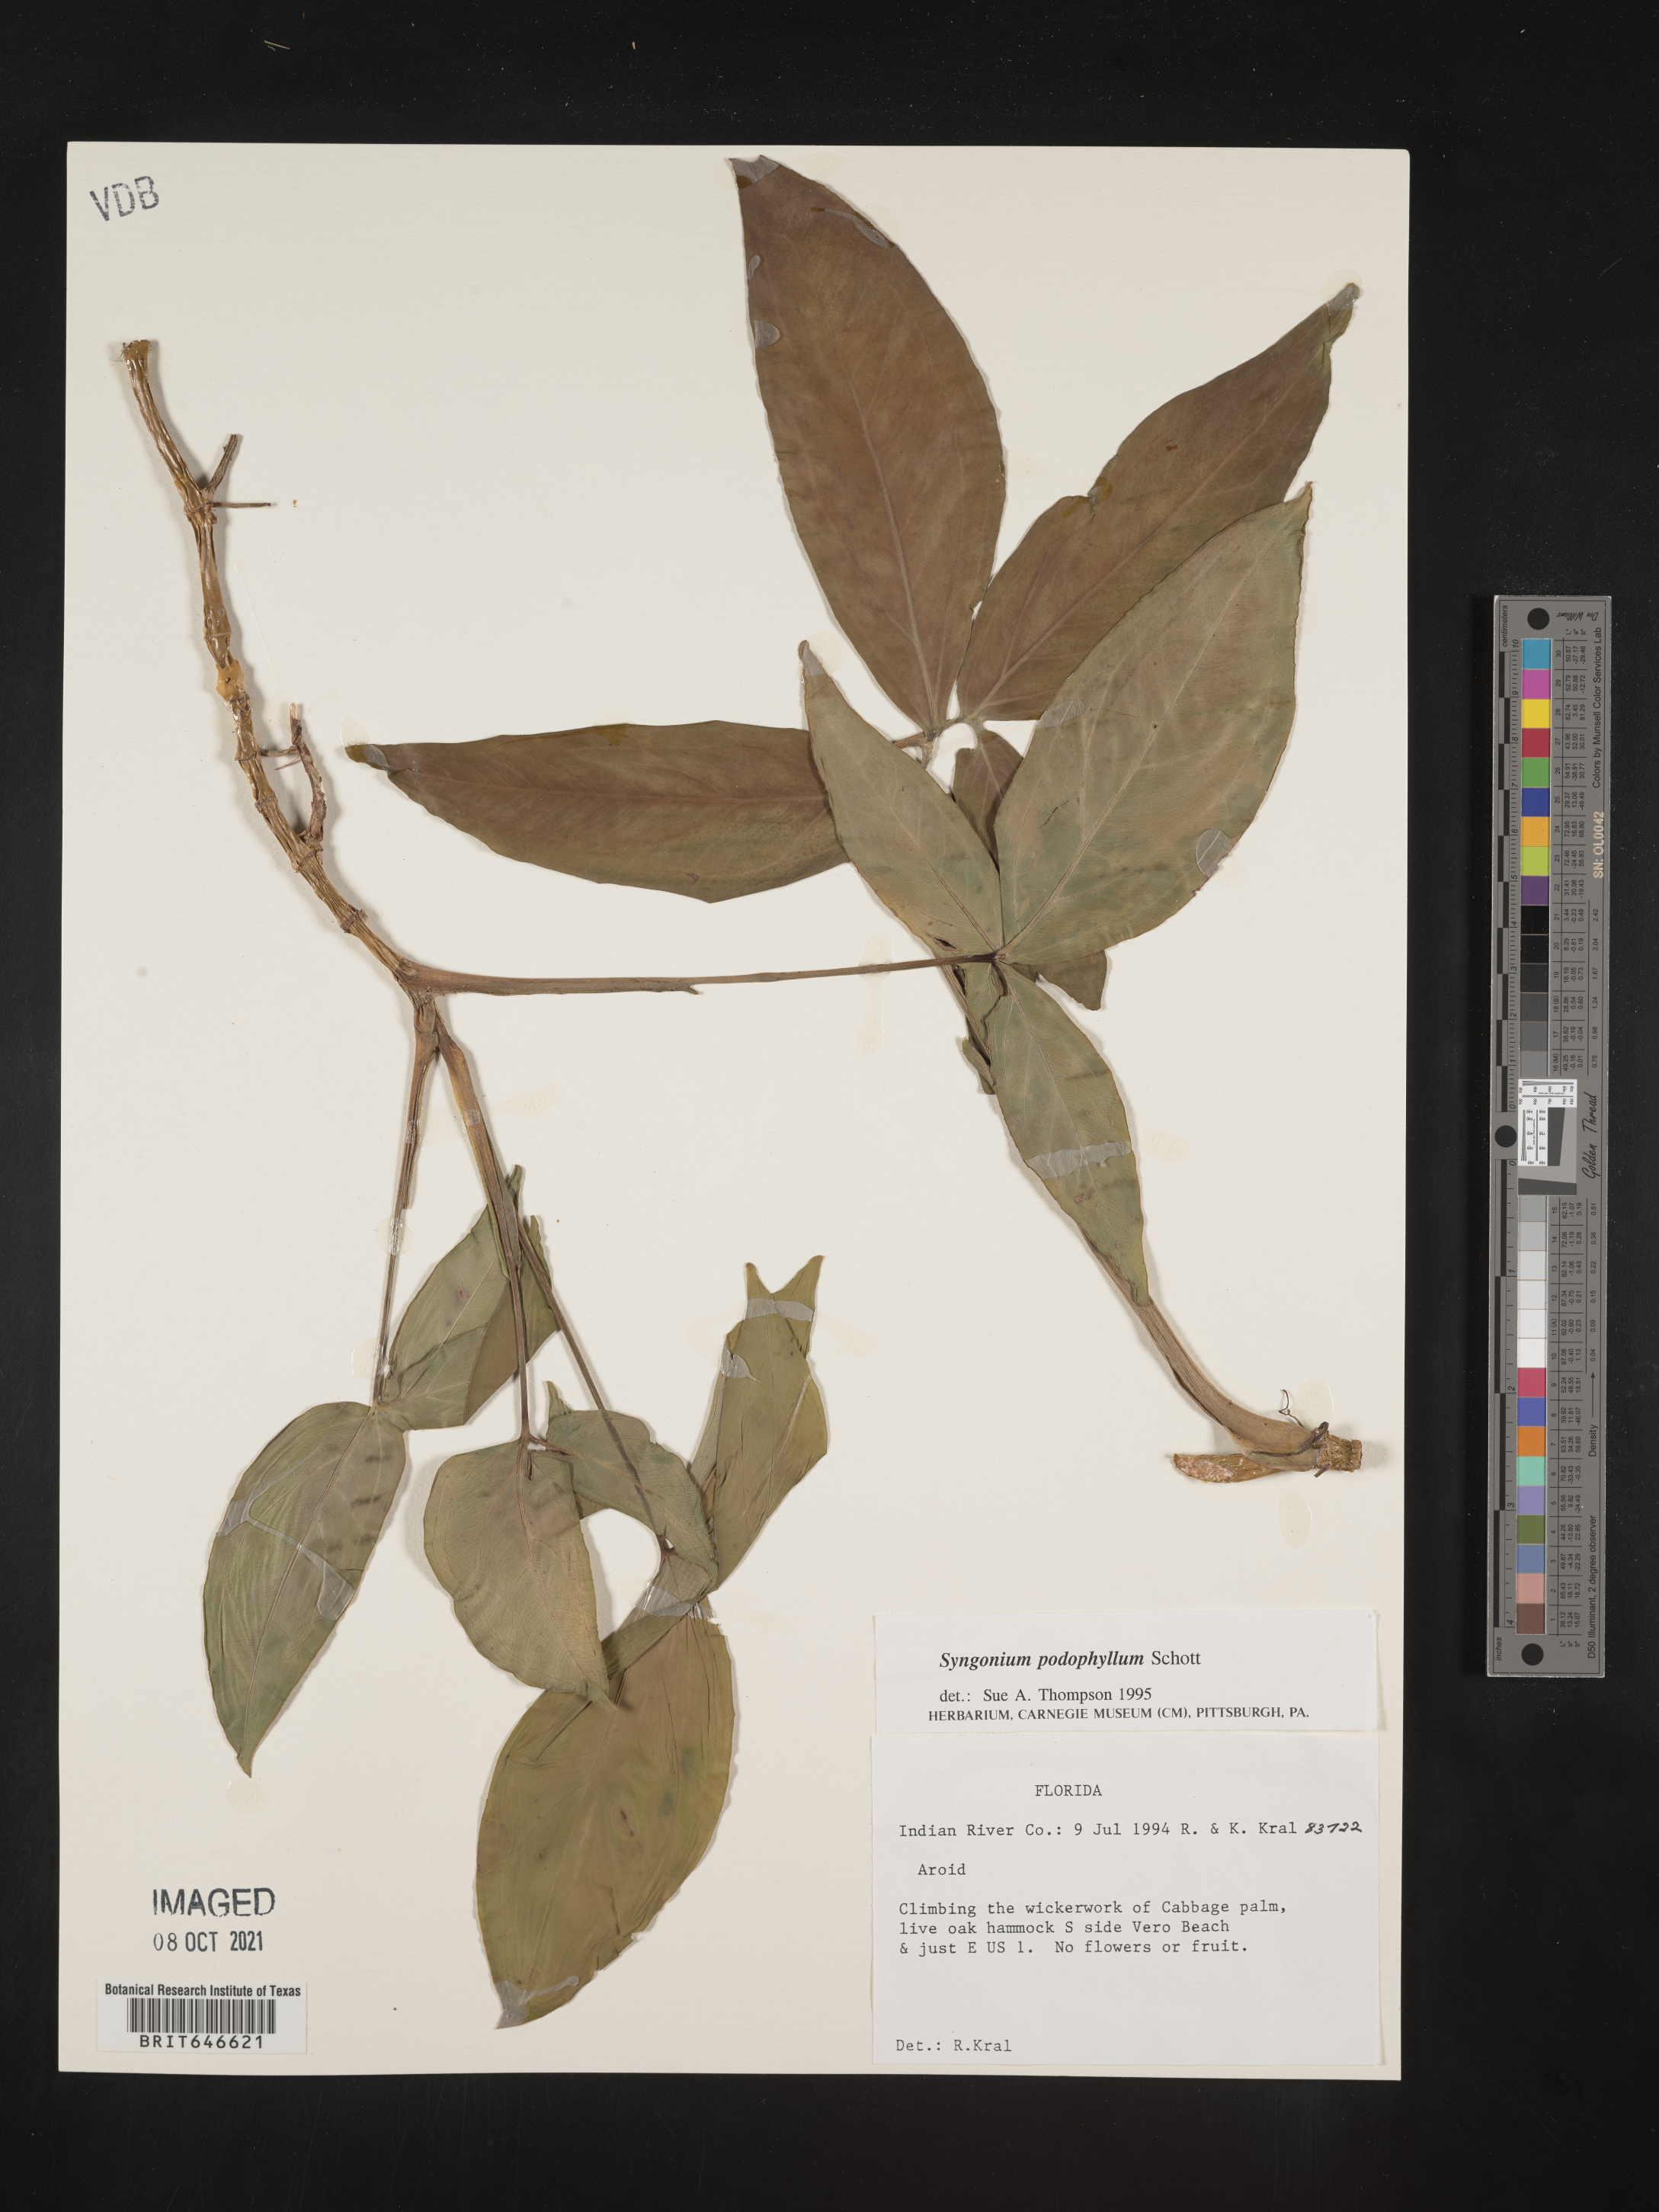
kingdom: Plantae
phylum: Tracheophyta
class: Liliopsida
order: Alismatales
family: Araceae
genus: Syngonium
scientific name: Syngonium podophyllum
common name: American evergreen
